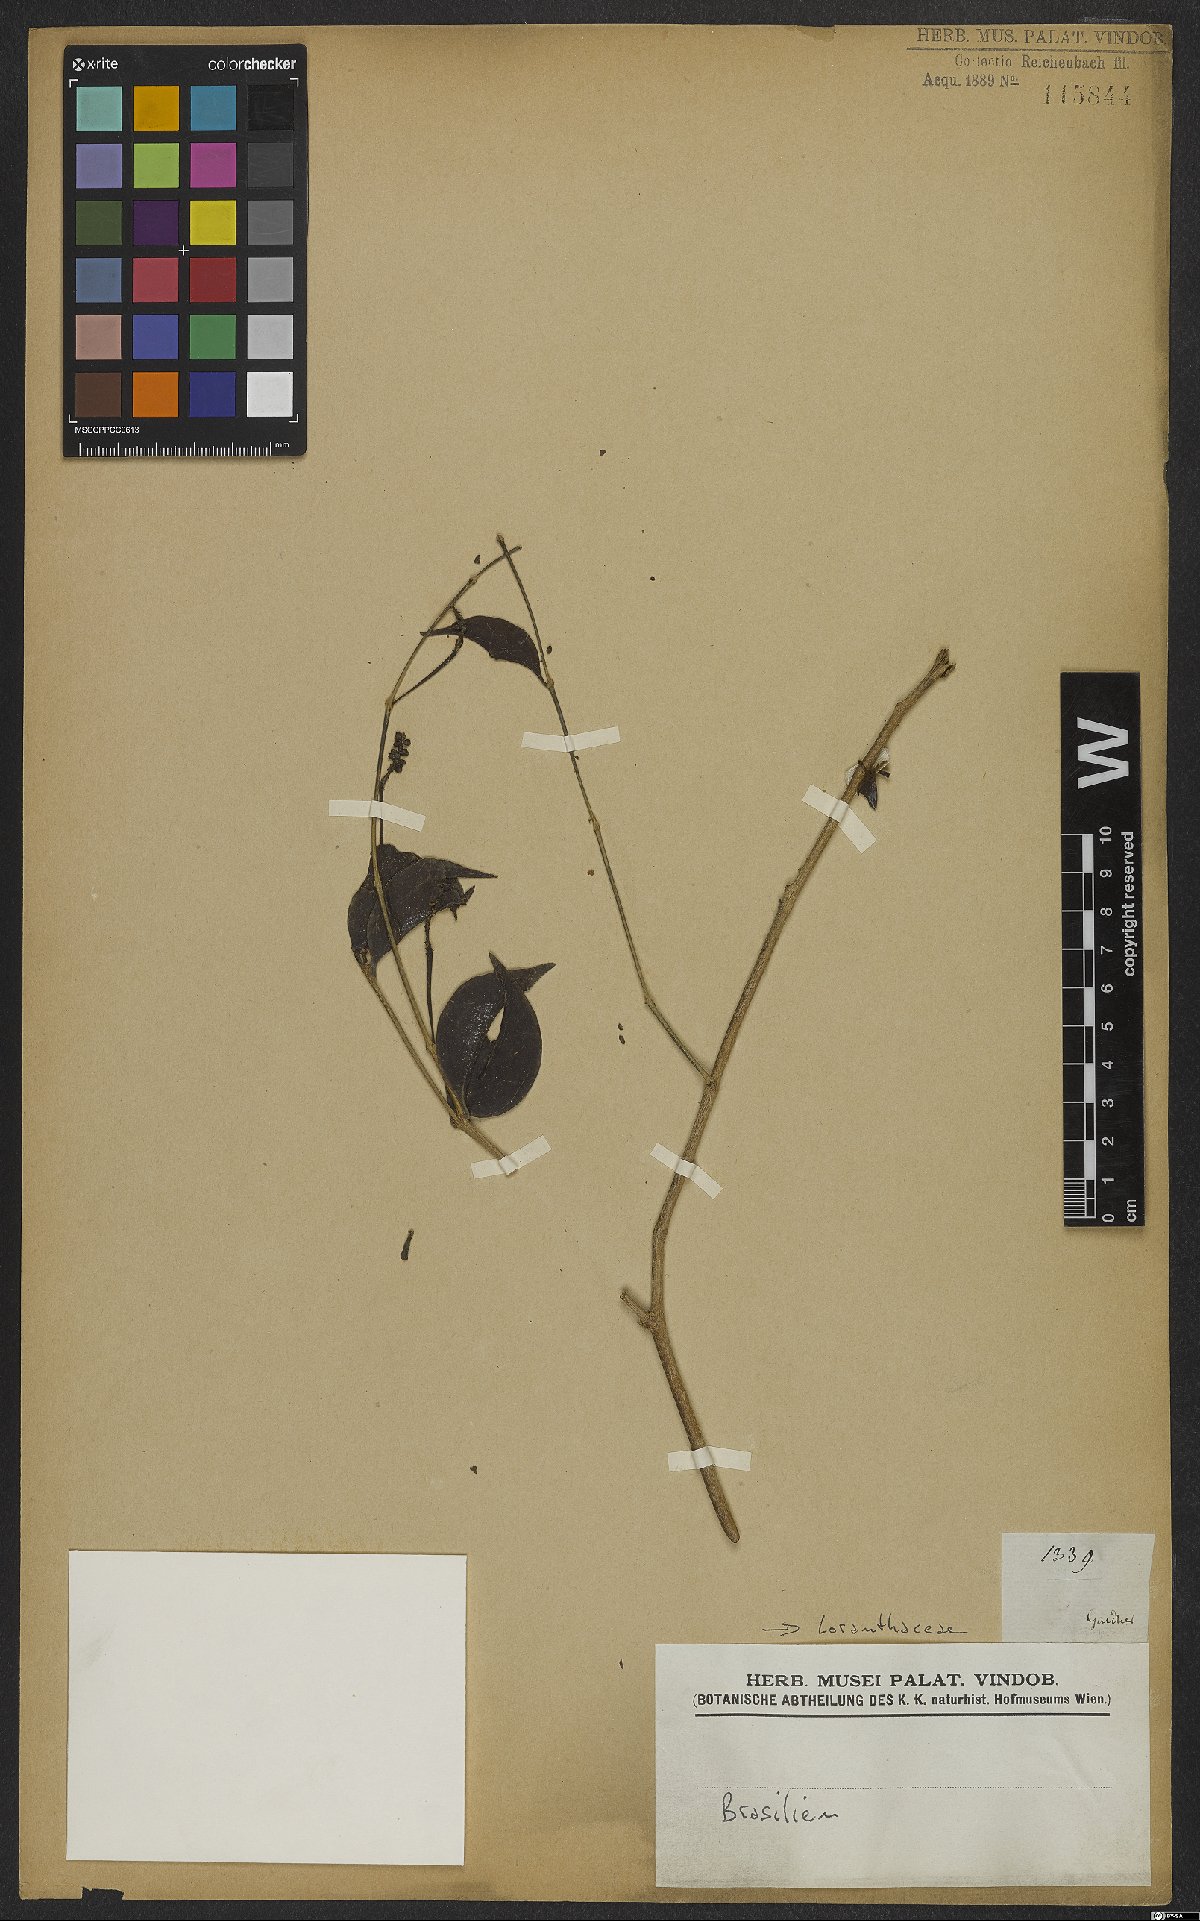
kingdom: Plantae
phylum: Tracheophyta
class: Magnoliopsida
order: Santalales
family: Loranthaceae
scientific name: Loranthaceae
